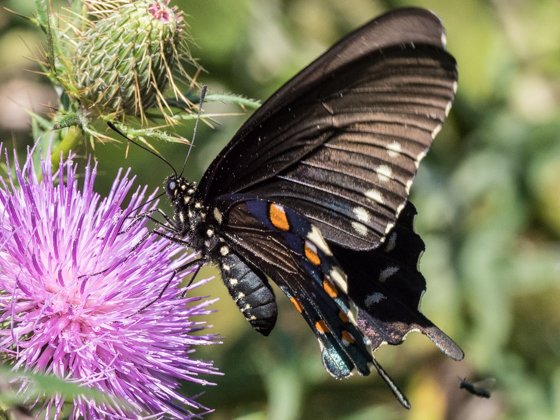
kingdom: Animalia
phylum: Arthropoda
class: Insecta
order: Lepidoptera
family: Papilionidae
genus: Battus
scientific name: Battus philenor
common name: Pipevine Swallowtail
